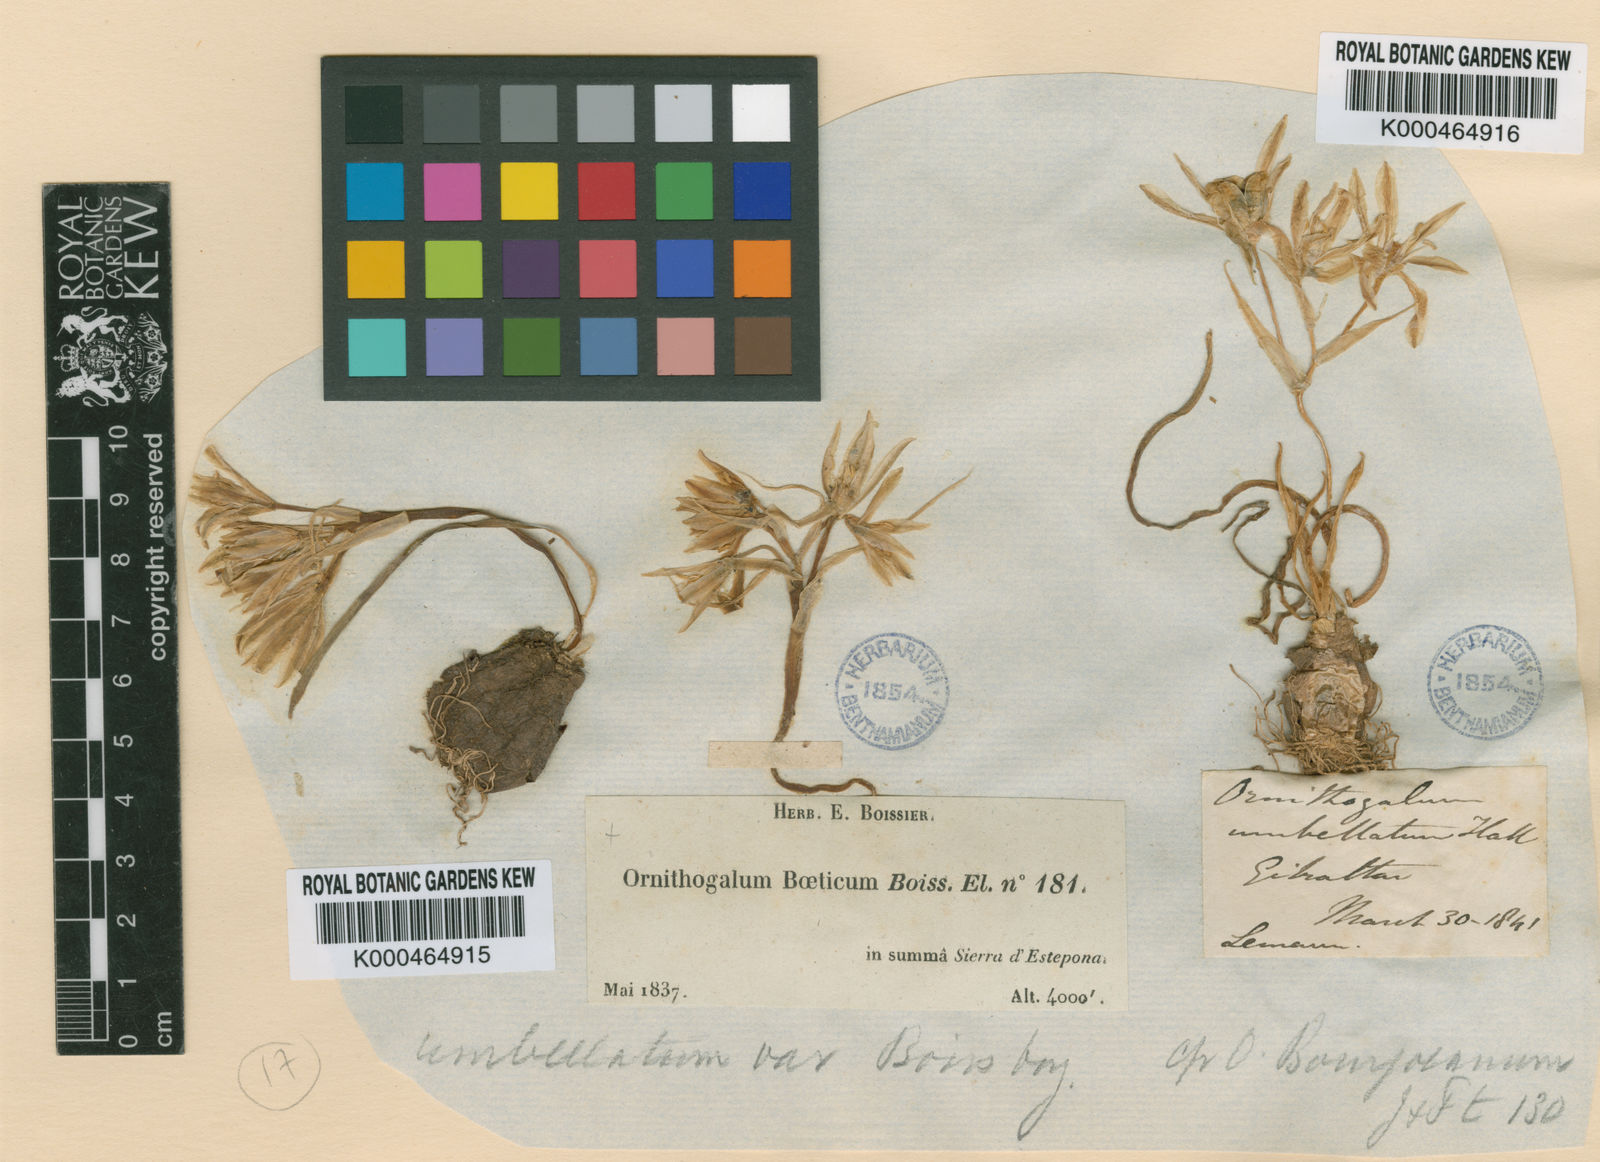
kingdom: Plantae
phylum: Tracheophyta
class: Liliopsida
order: Asparagales
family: Asparagaceae
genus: Ornithogalum
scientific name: Ornithogalum orthophyllum
